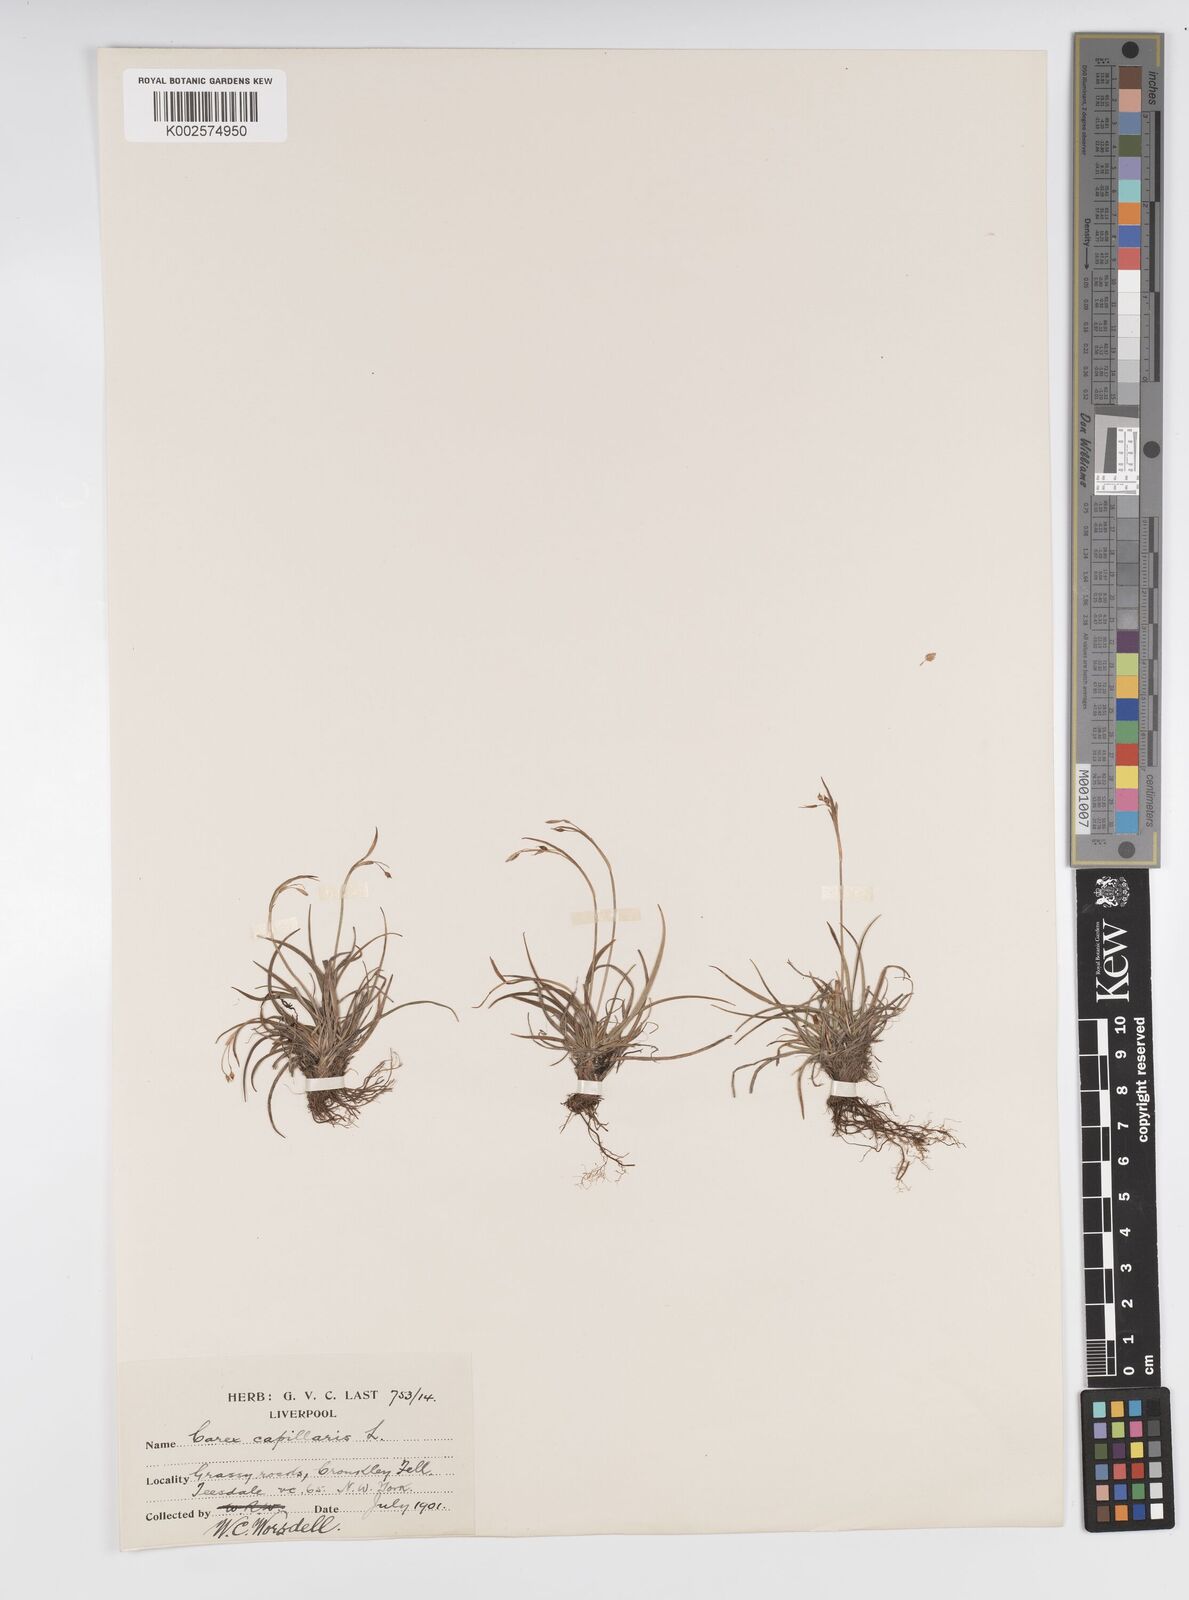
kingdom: Plantae
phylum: Tracheophyta
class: Liliopsida
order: Poales
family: Cyperaceae
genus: Carex
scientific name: Carex capillaris
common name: Hair sedge
